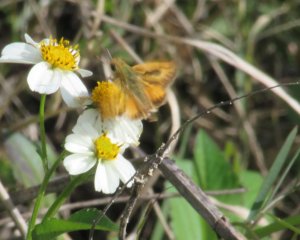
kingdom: Animalia
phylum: Arthropoda
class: Insecta
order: Lepidoptera
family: Hesperiidae
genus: Hylephila
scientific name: Hylephila phyleus
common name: Fiery Skipper
